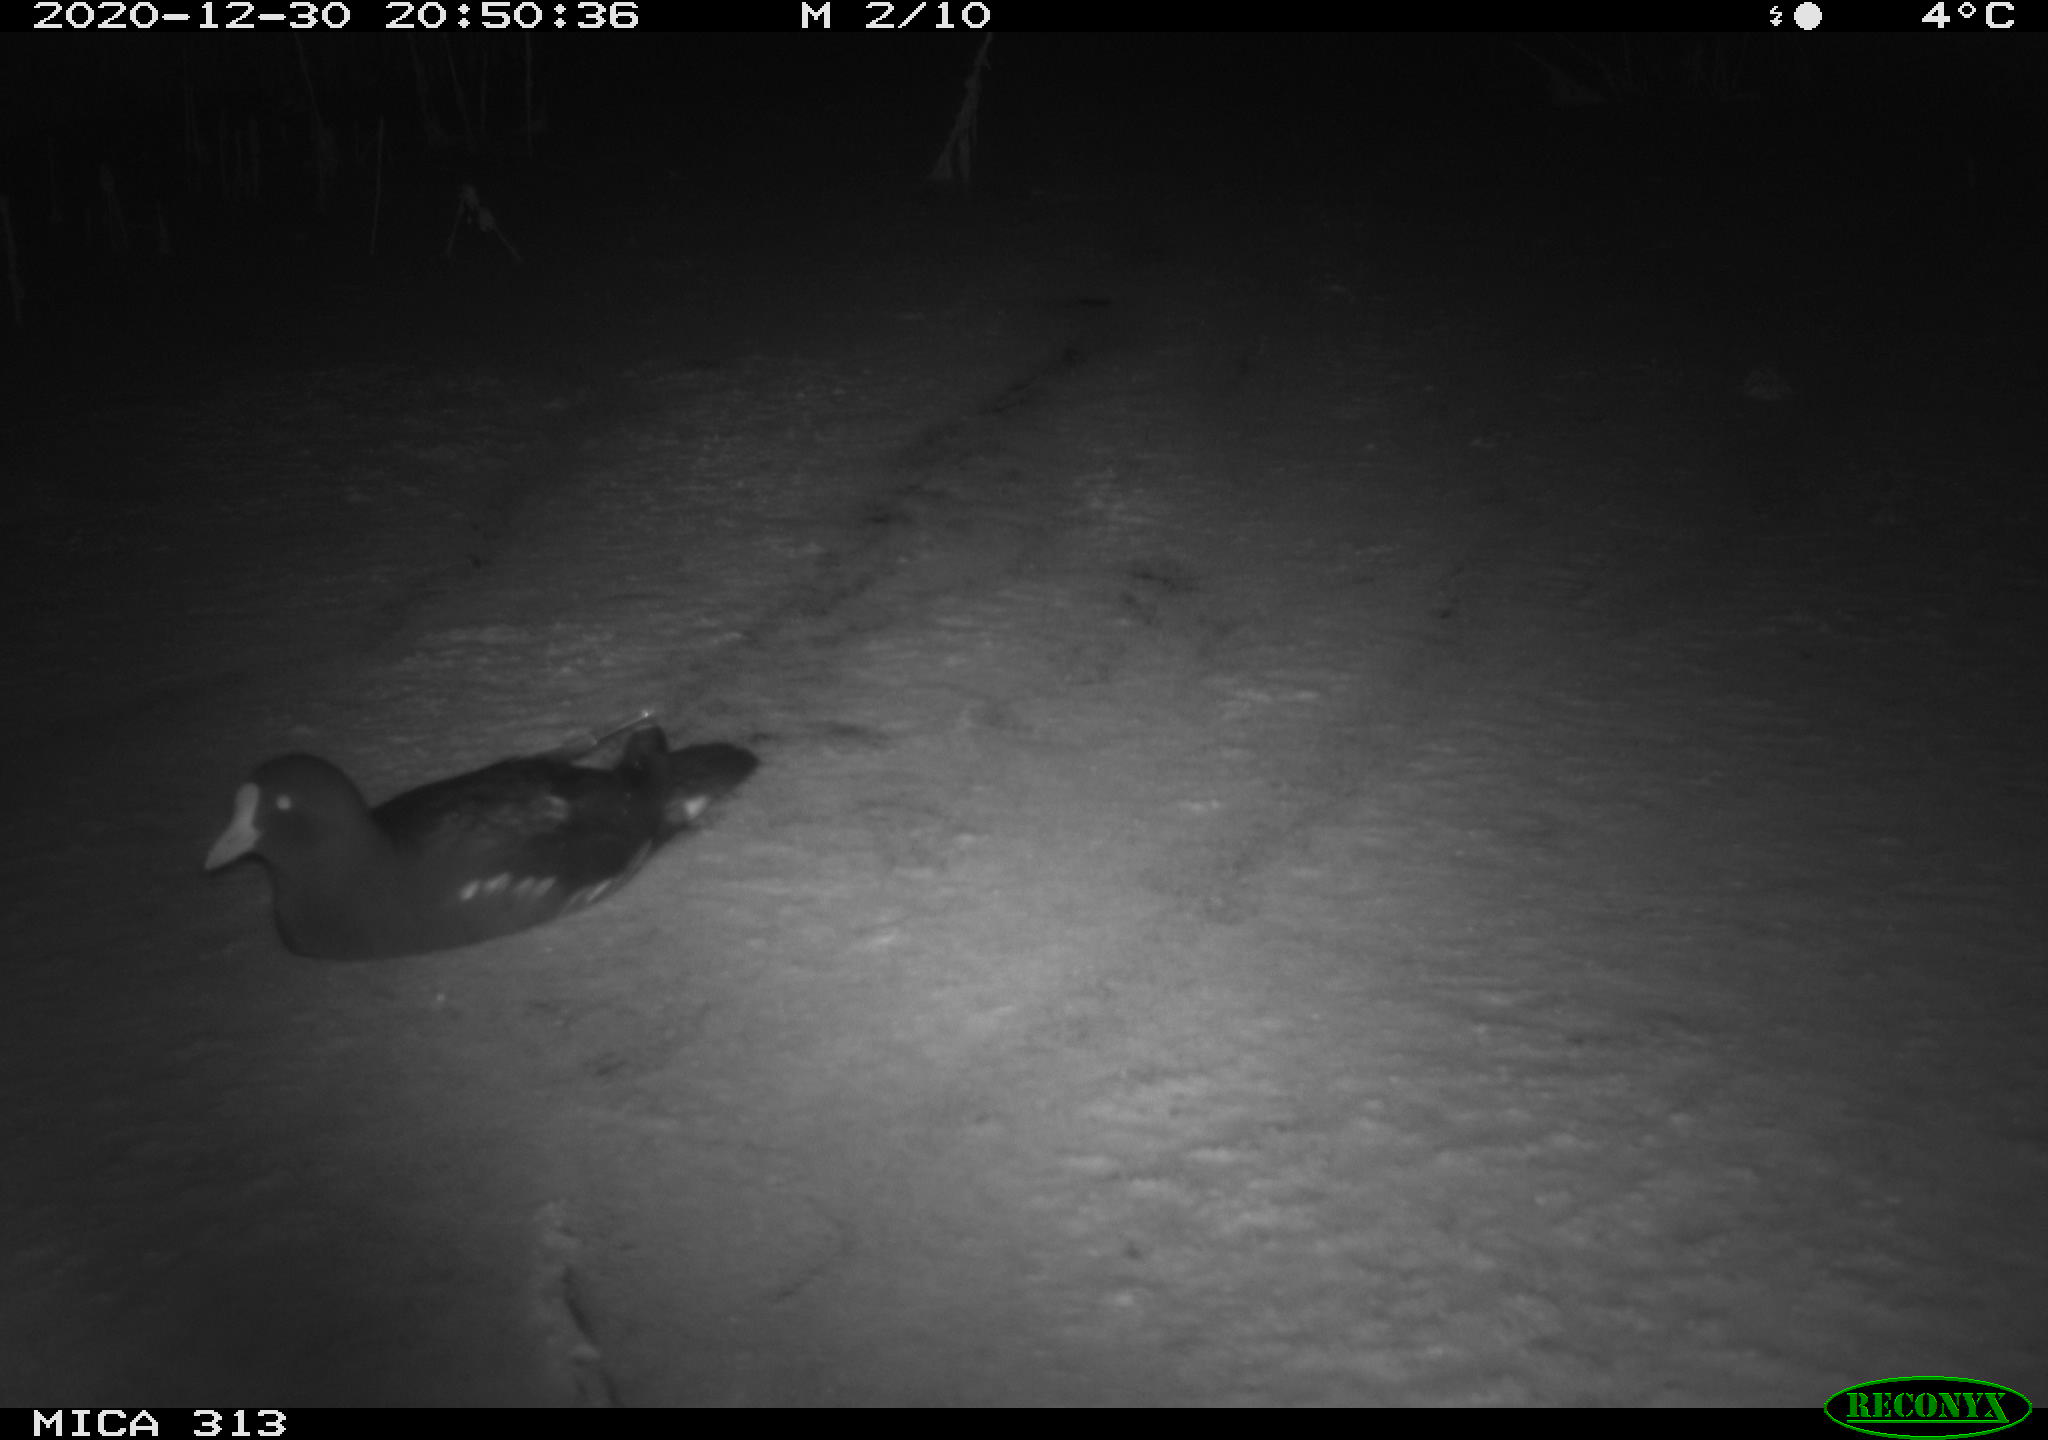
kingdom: Animalia
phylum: Chordata
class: Aves
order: Gruiformes
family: Rallidae
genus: Gallinula
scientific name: Gallinula chloropus
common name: Common moorhen
